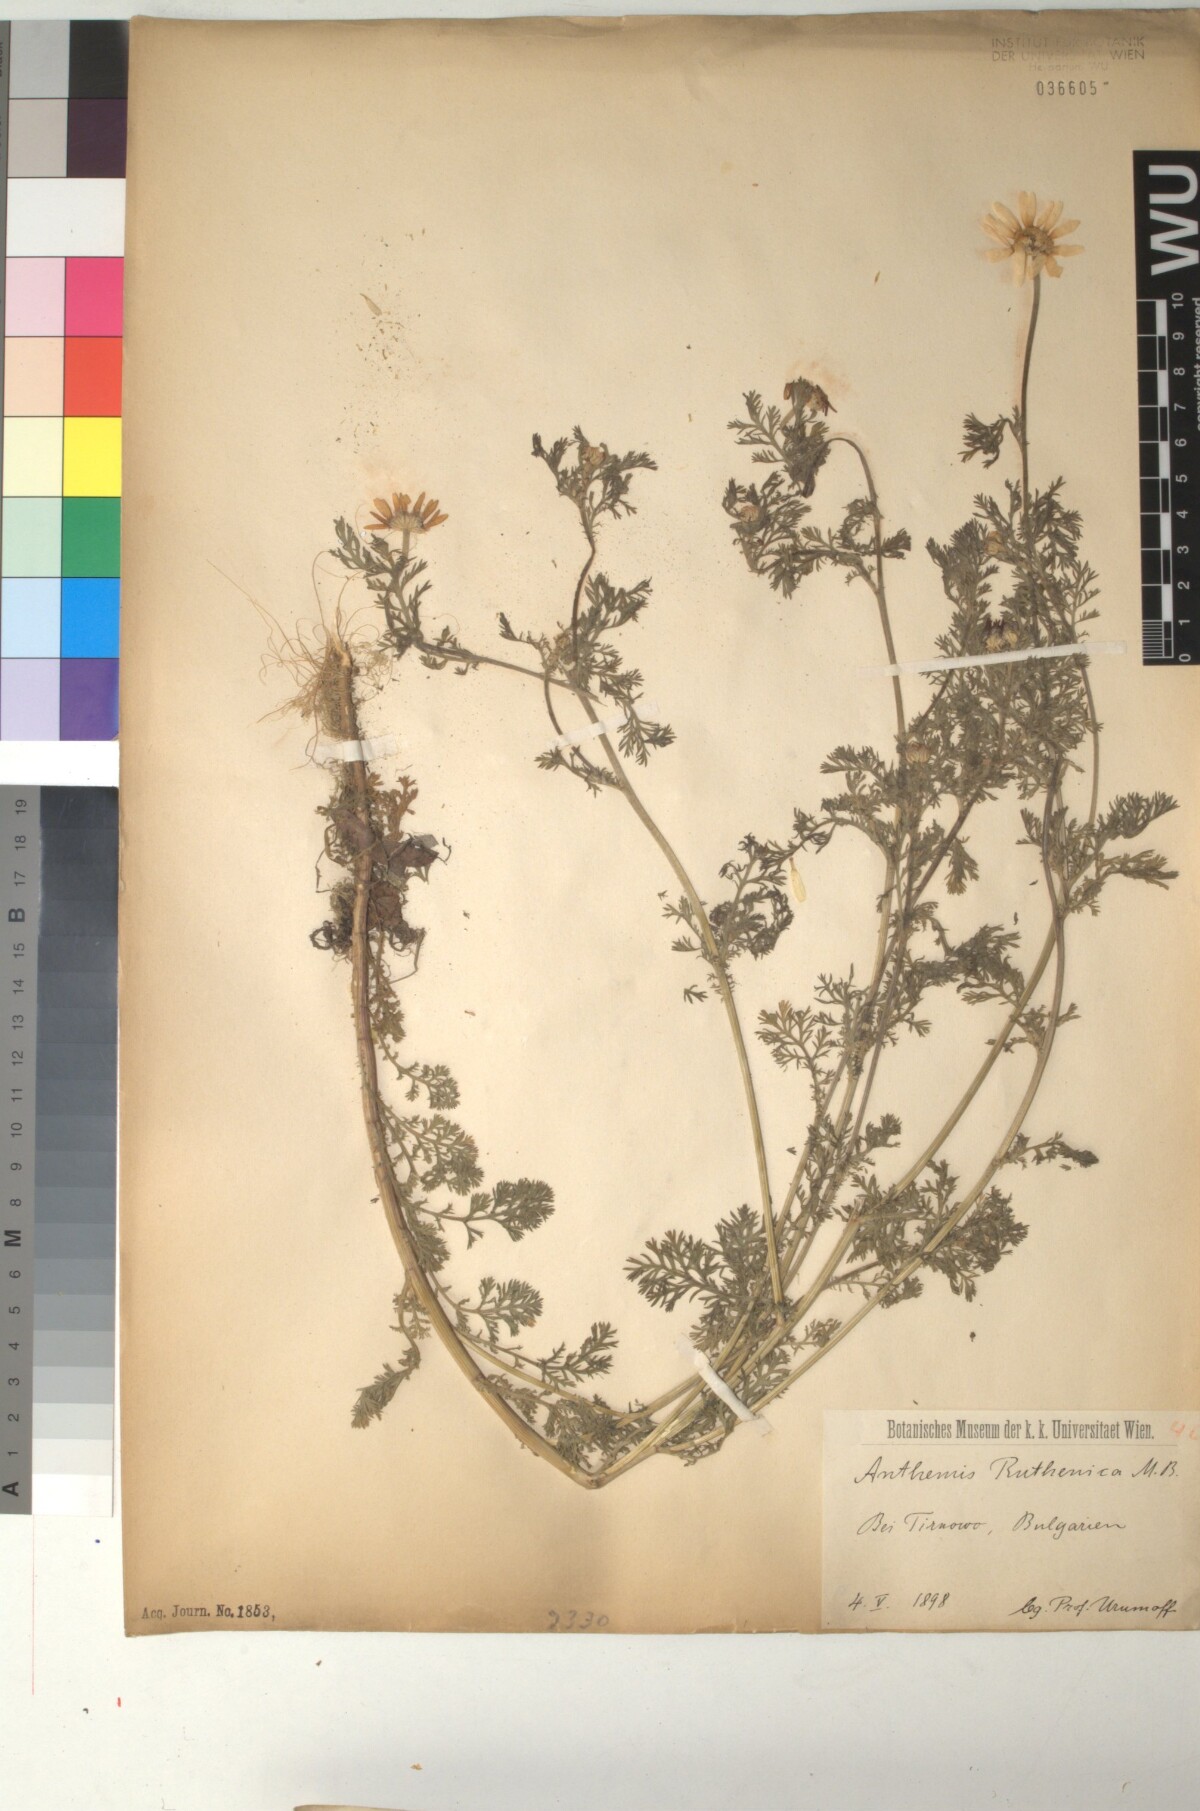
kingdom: Plantae
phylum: Tracheophyta
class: Magnoliopsida
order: Asterales
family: Asteraceae
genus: Anthemis
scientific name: Anthemis ruthenica
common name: Eastern chamomile
